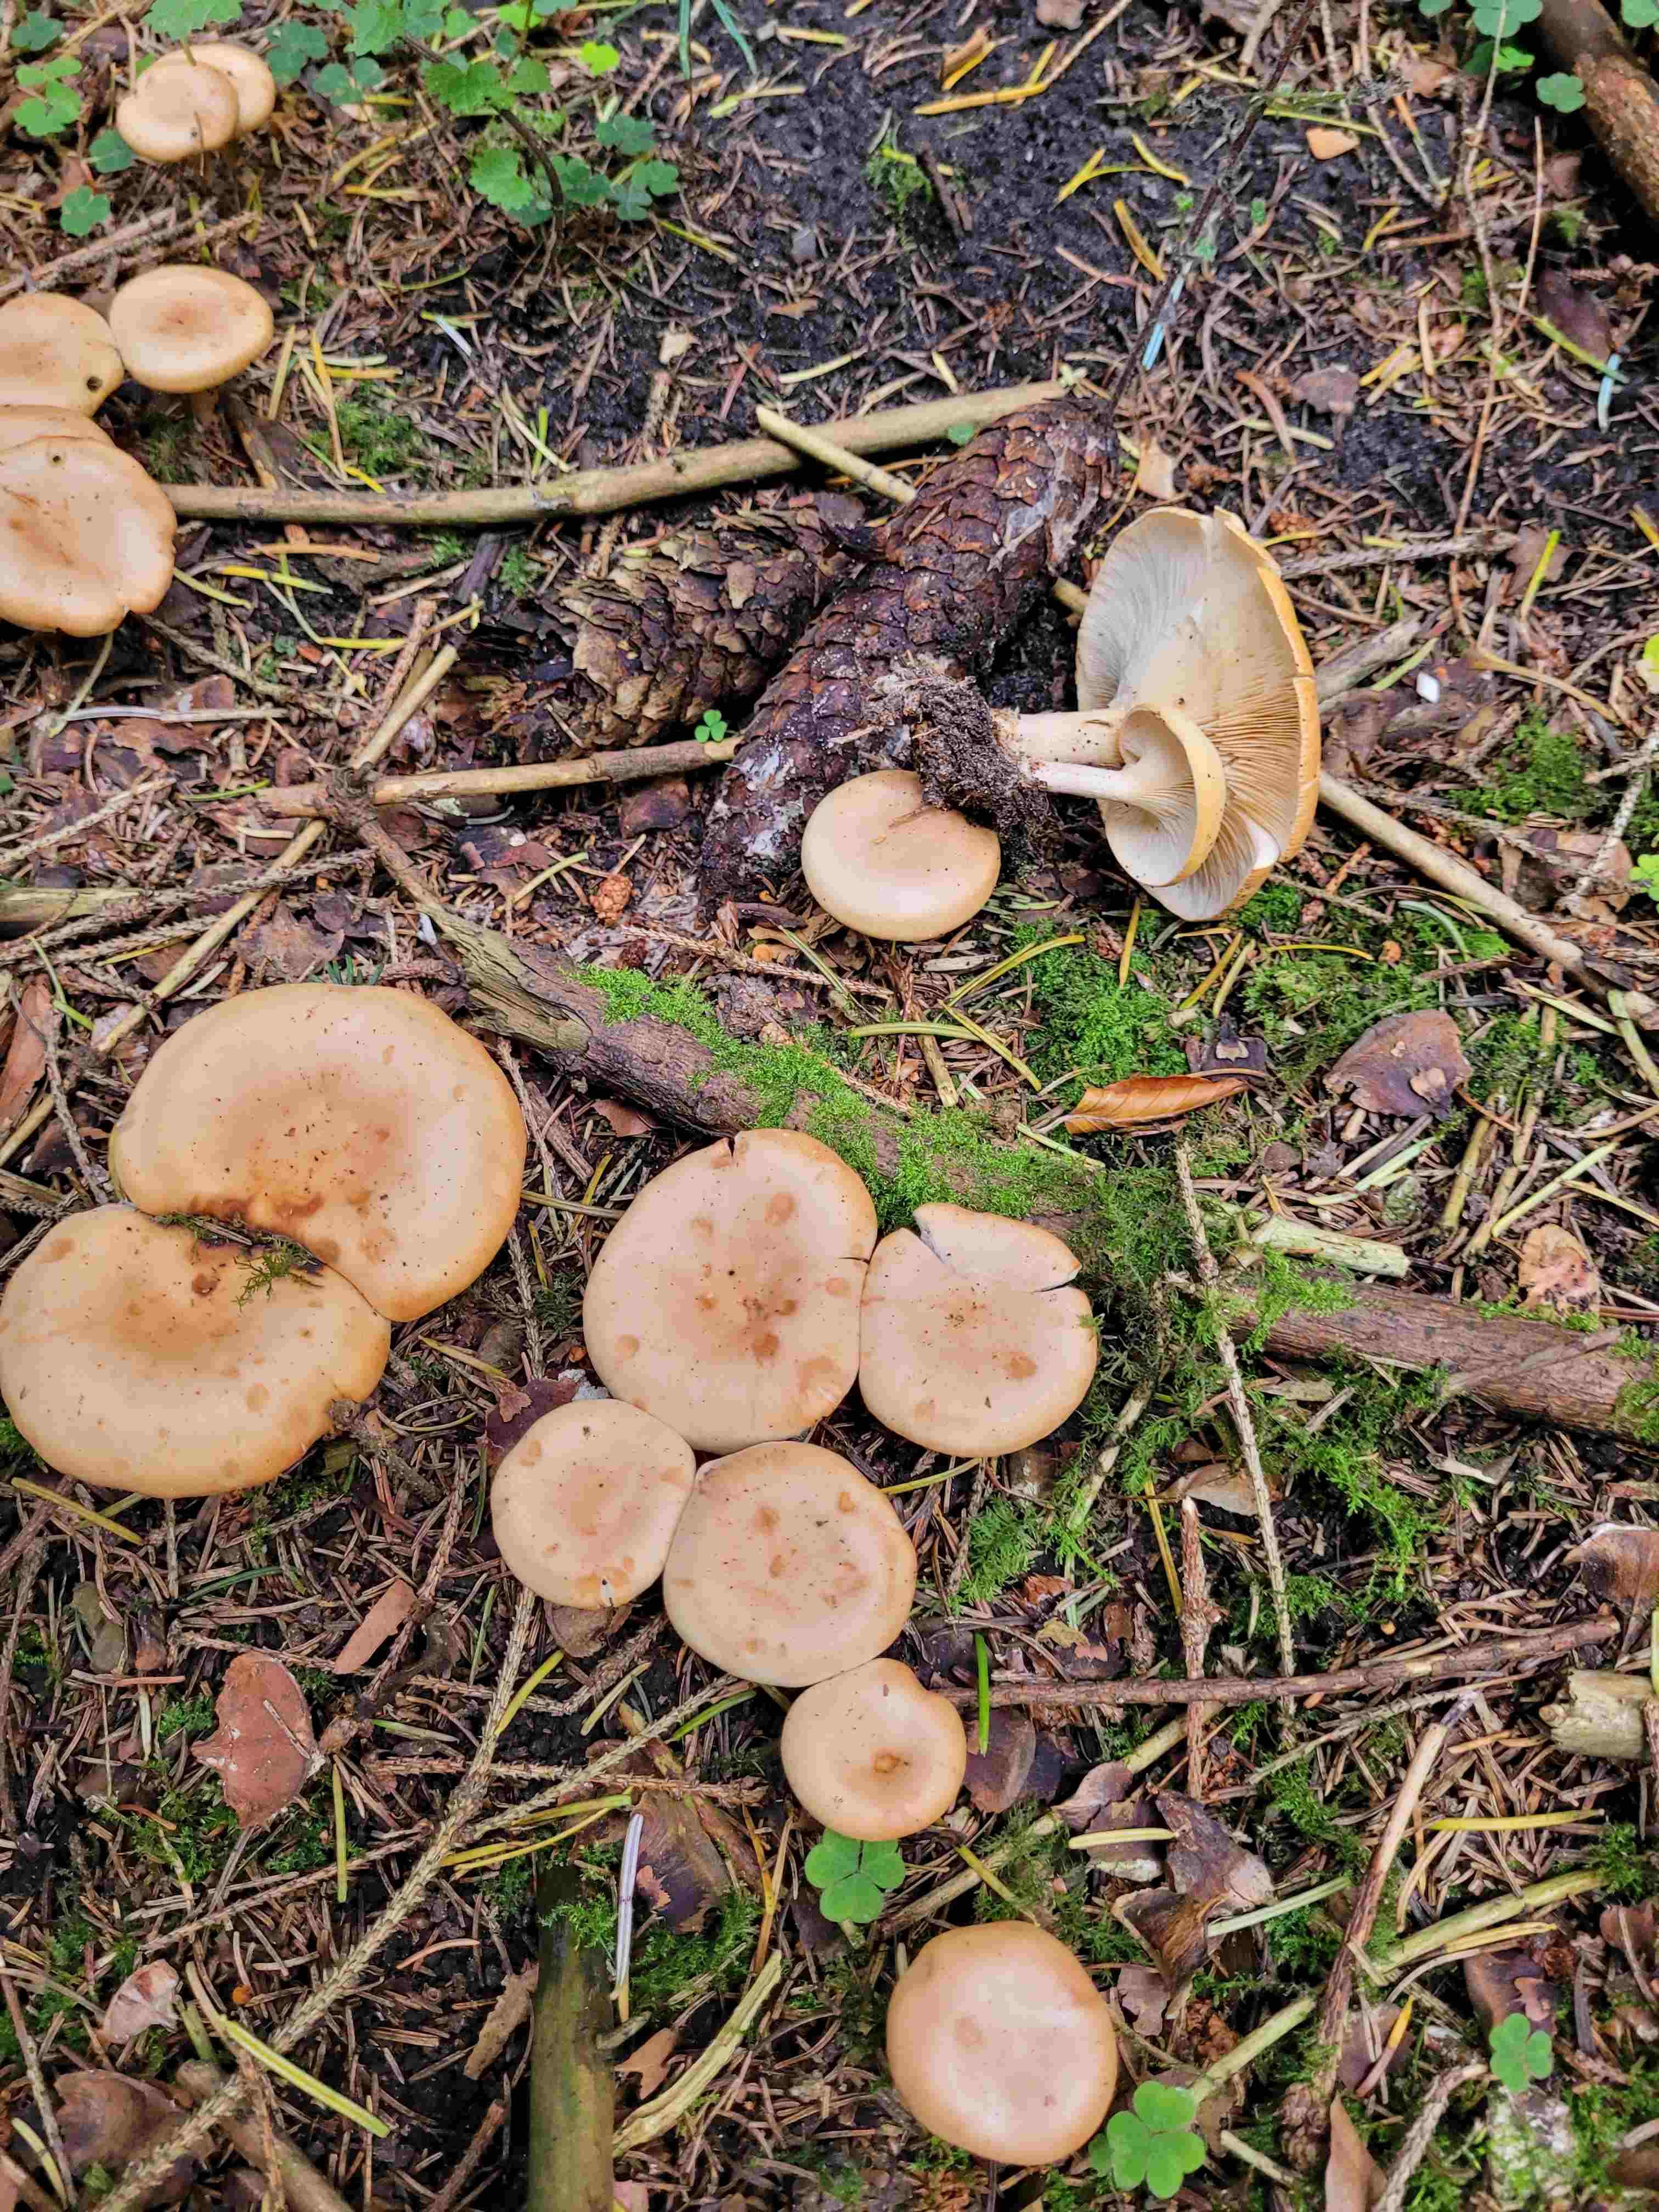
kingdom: Fungi
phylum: Basidiomycota
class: Agaricomycetes
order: Agaricales
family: Tricholomataceae
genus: Paralepista
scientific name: Paralepista flaccida
